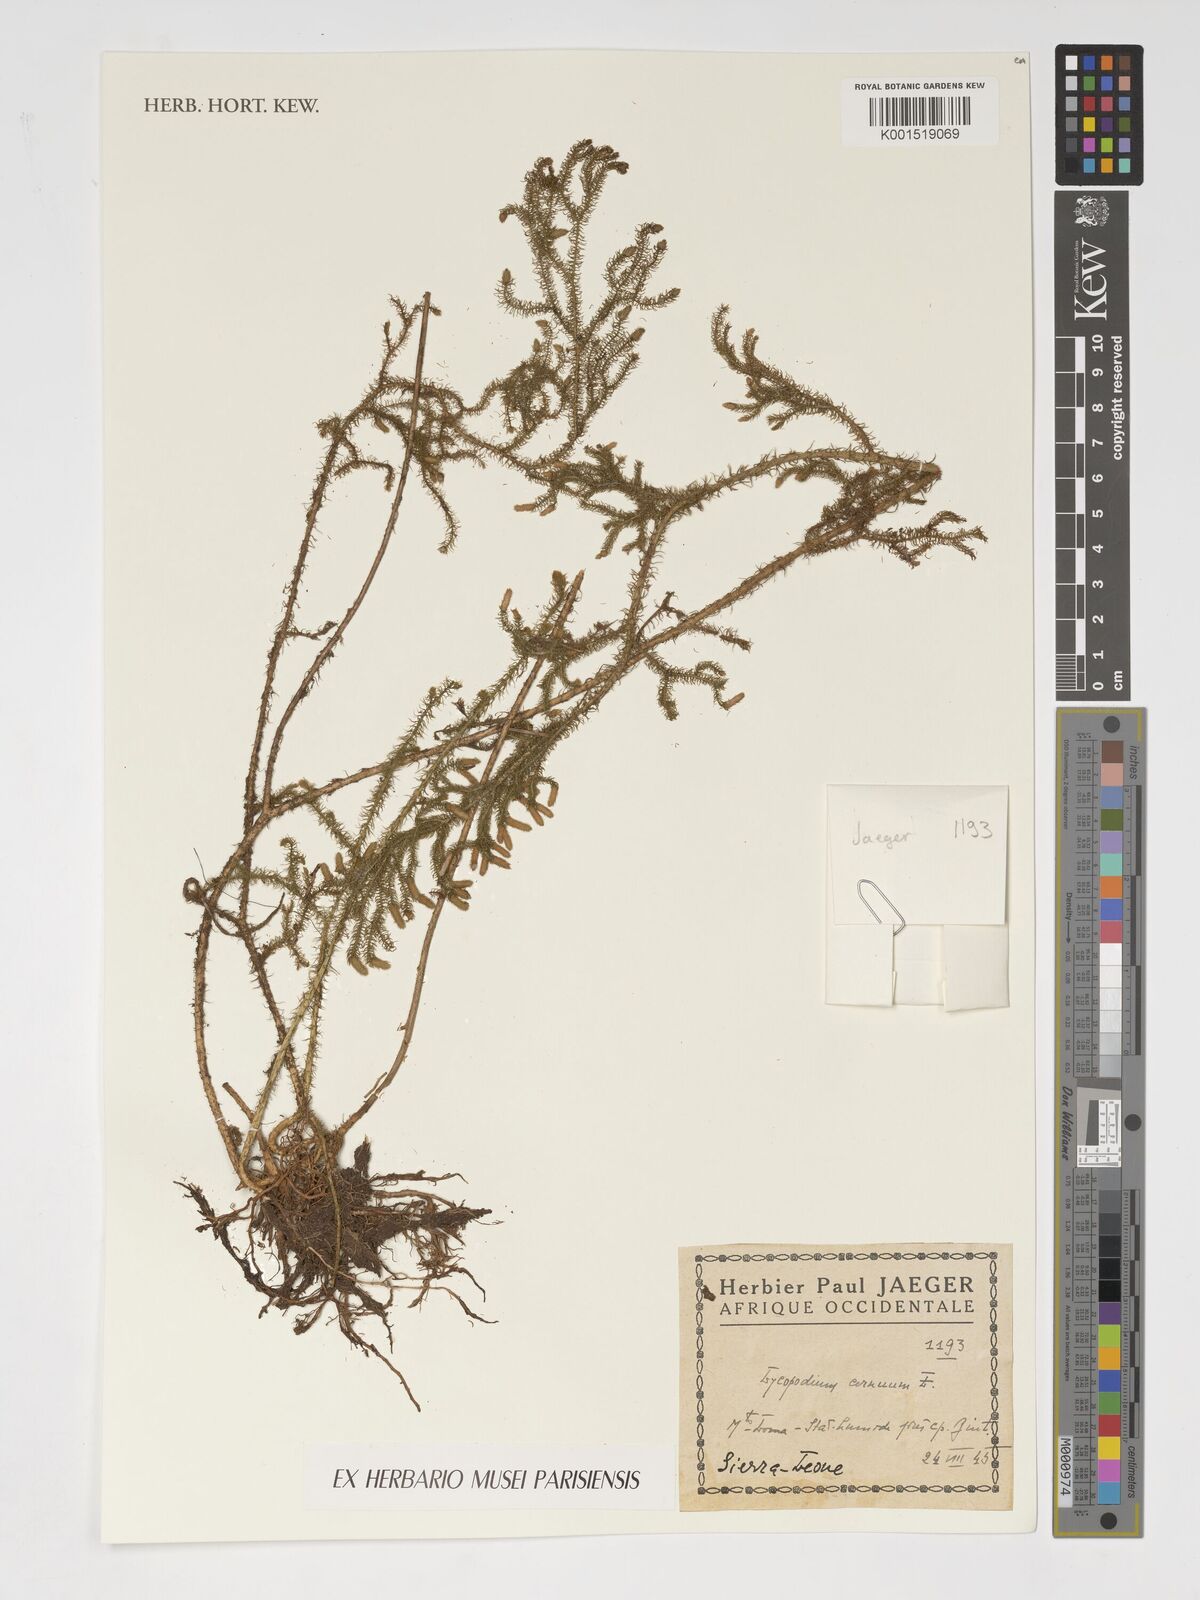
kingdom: Plantae
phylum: Tracheophyta
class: Lycopodiopsida
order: Lycopodiales
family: Lycopodiaceae
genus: Palhinhaea
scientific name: Palhinhaea cernua
